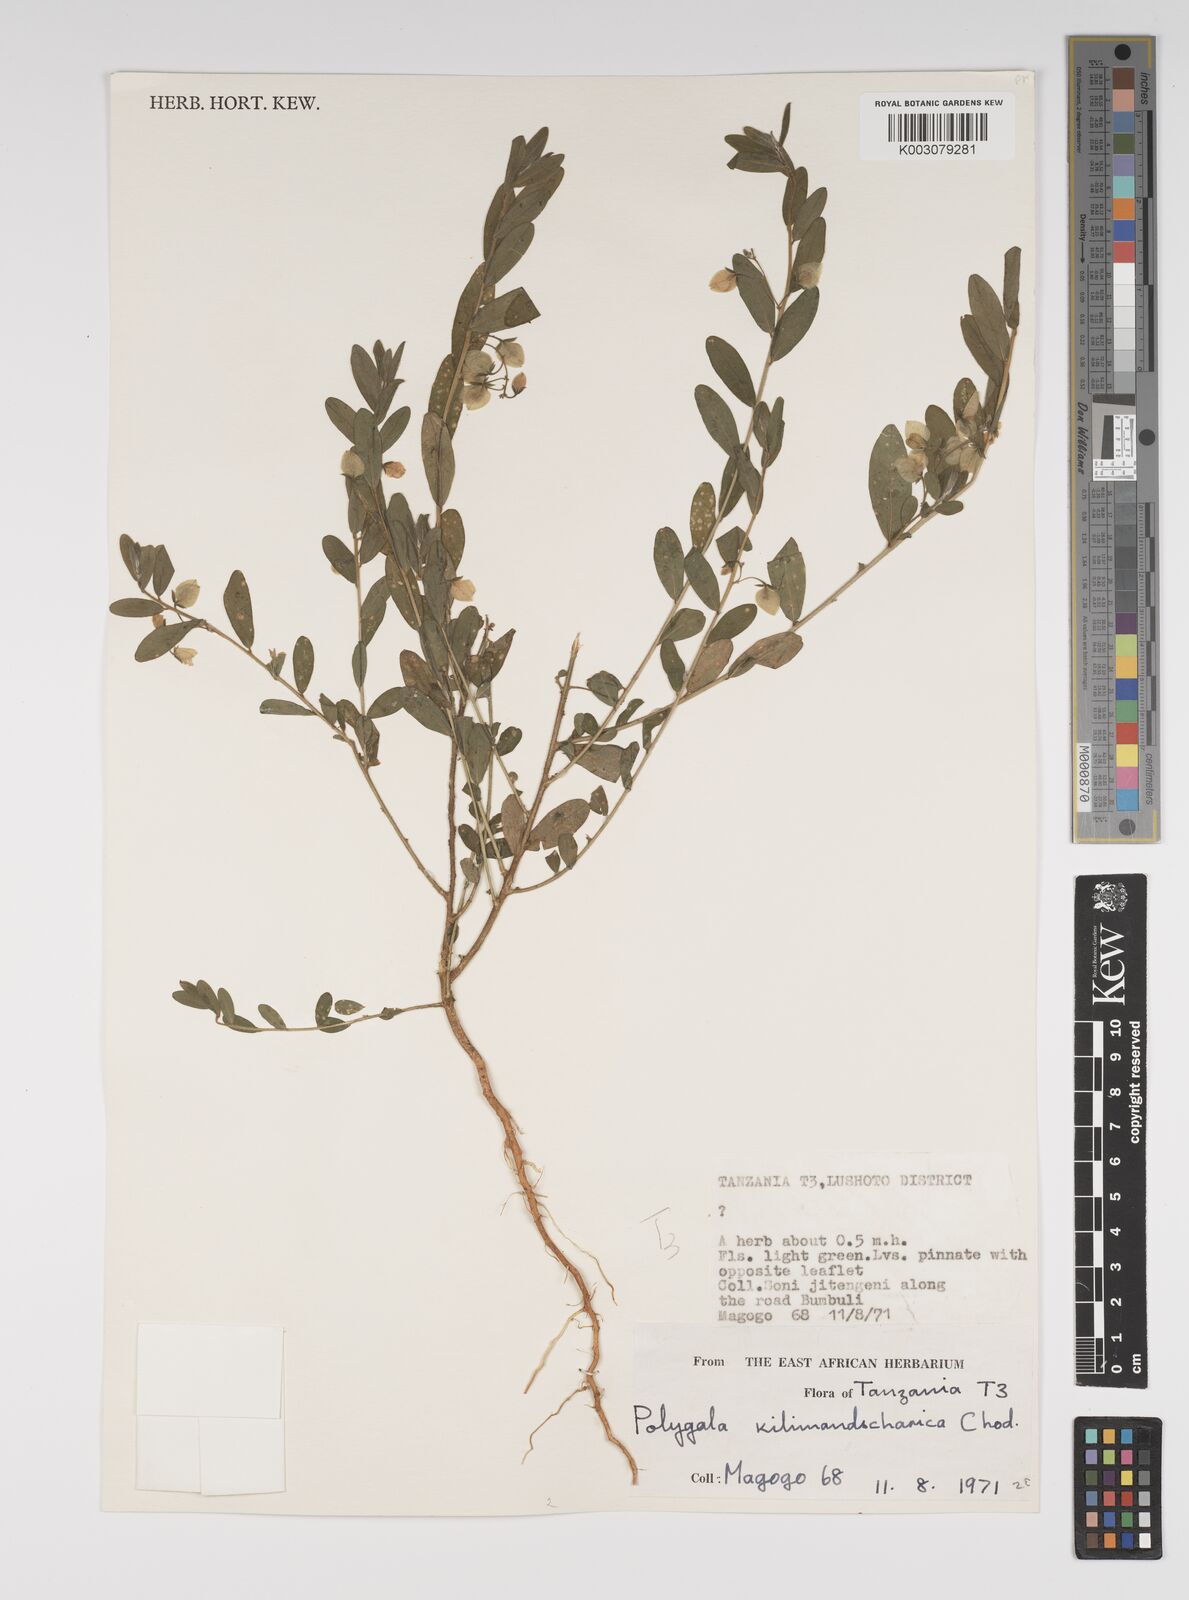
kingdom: Plantae
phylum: Tracheophyta
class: Magnoliopsida
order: Fabales
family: Polygalaceae
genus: Polygala
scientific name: Polygala kilimandjarica
